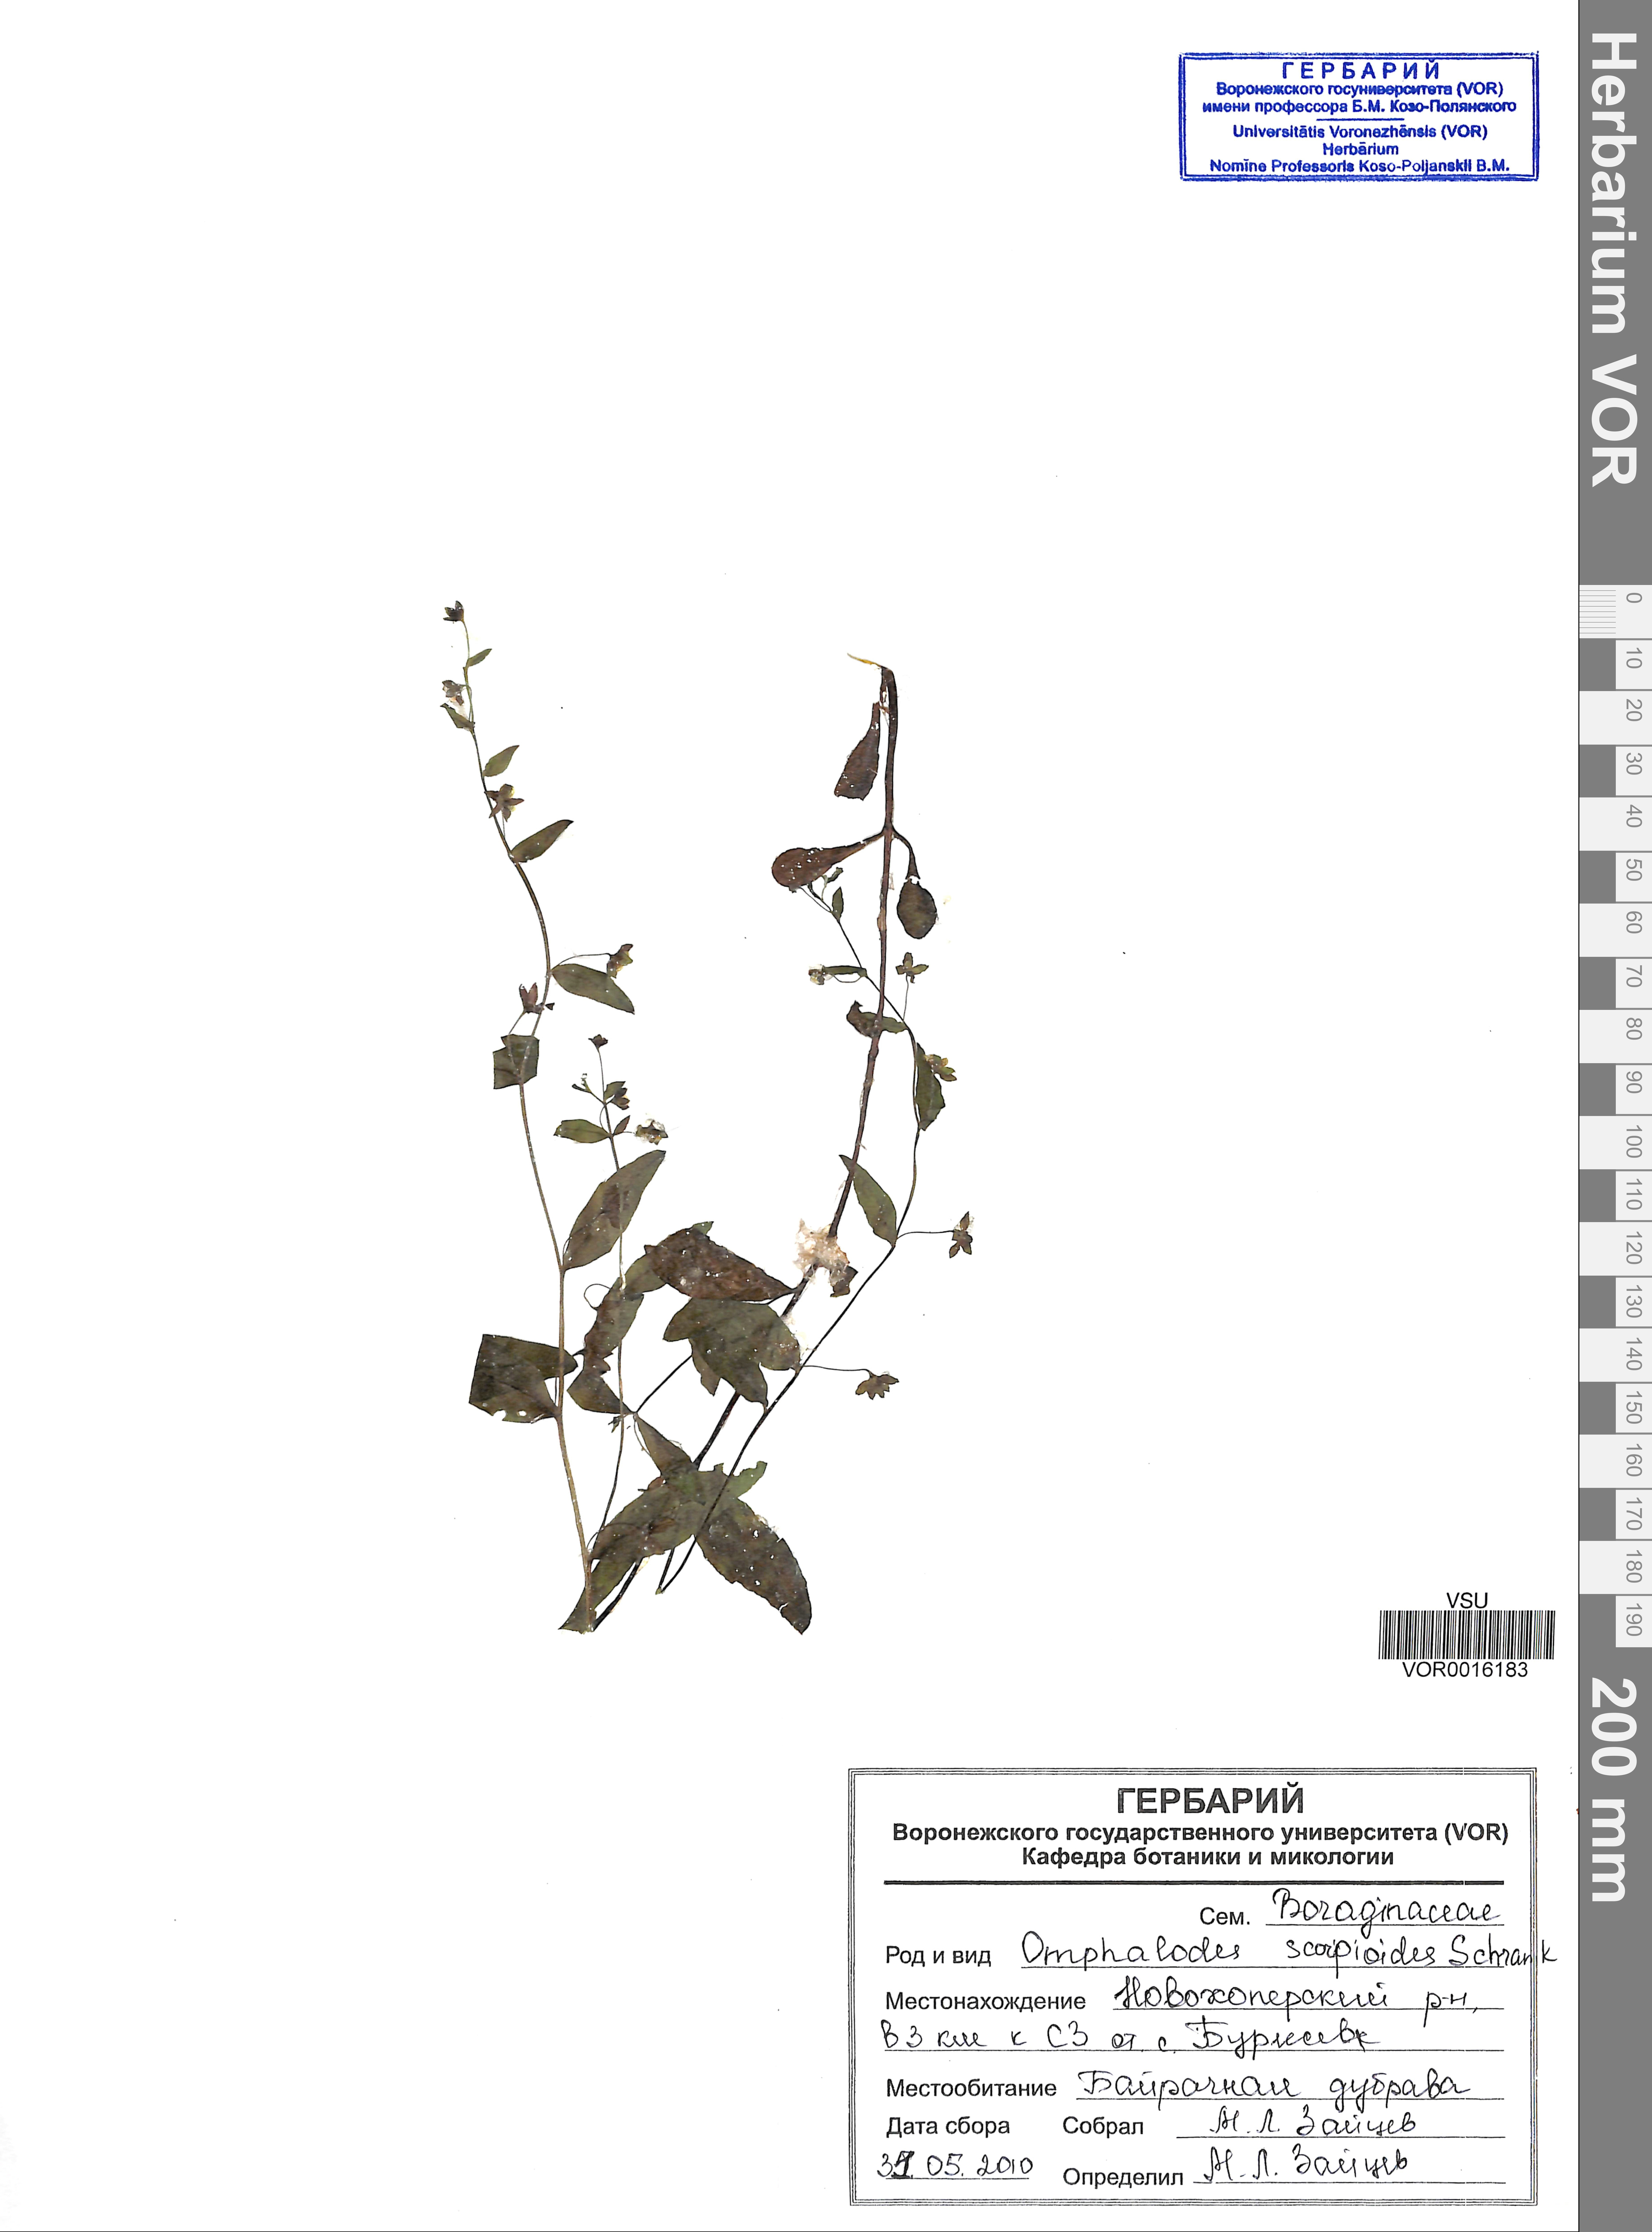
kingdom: Plantae
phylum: Tracheophyta
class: Magnoliopsida
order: Boraginales
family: Boraginaceae
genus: Memoremea
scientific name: Memoremea scorpioides
